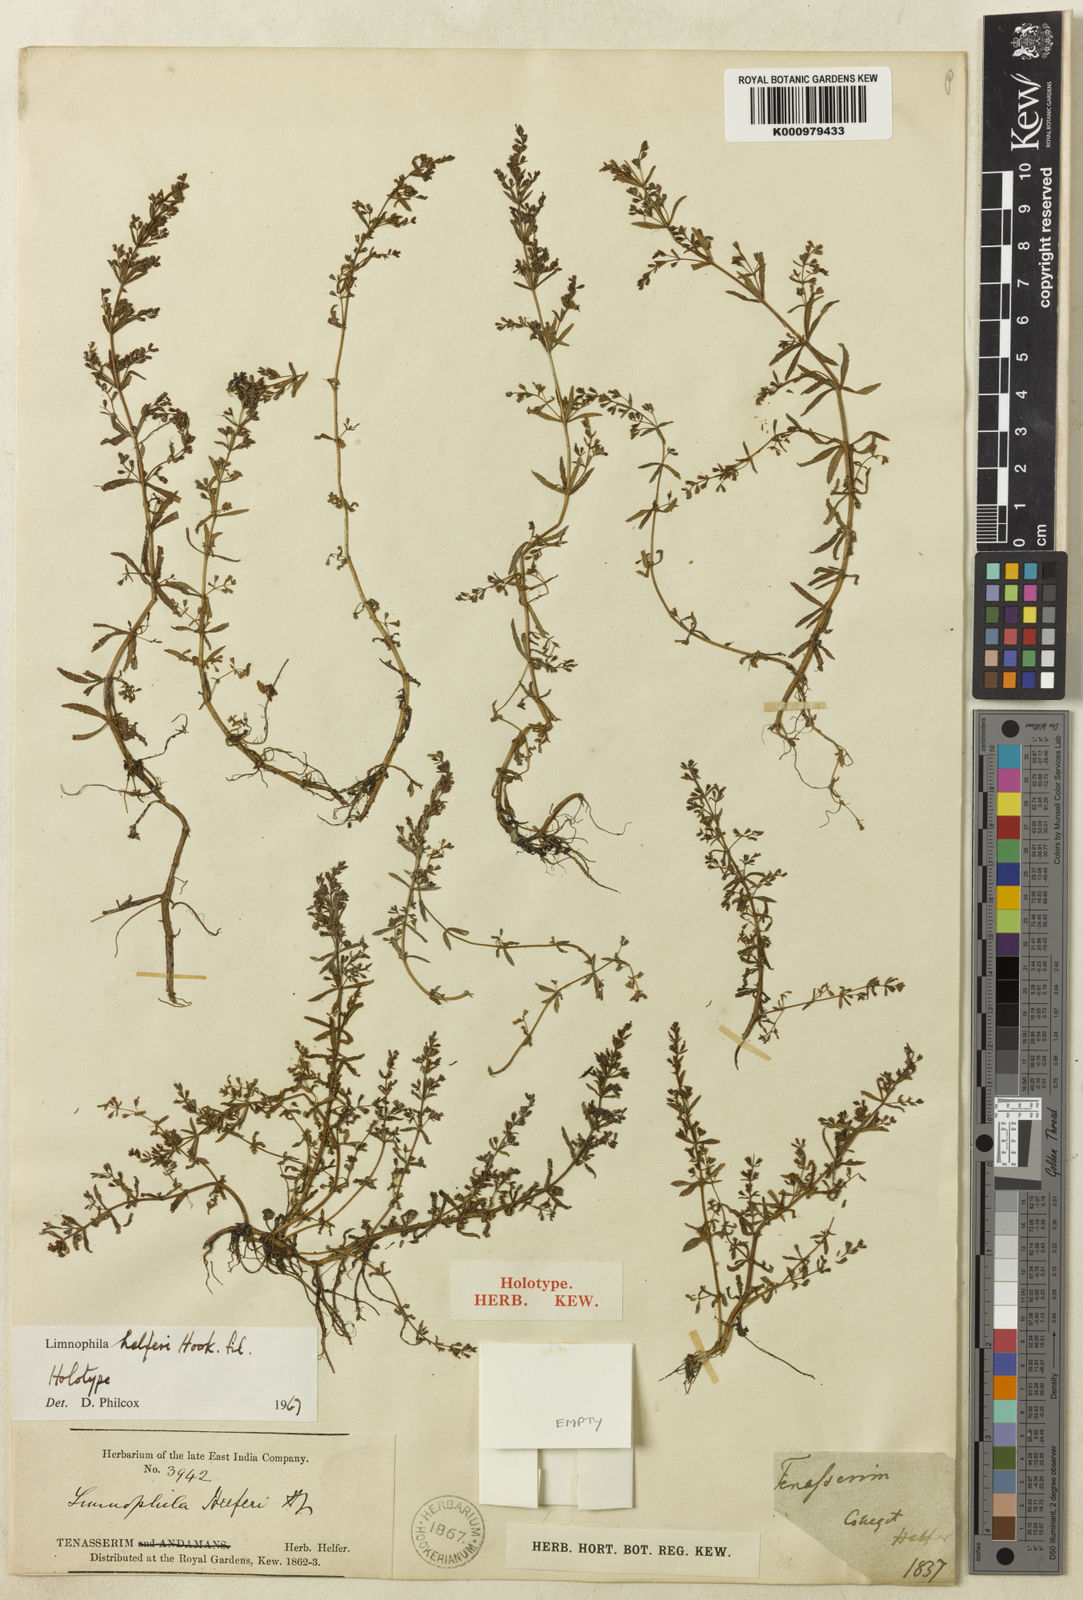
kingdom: Plantae
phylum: Tracheophyta
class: Magnoliopsida
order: Lamiales
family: Plantaginaceae
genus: Limnophila
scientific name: Limnophila helferi
